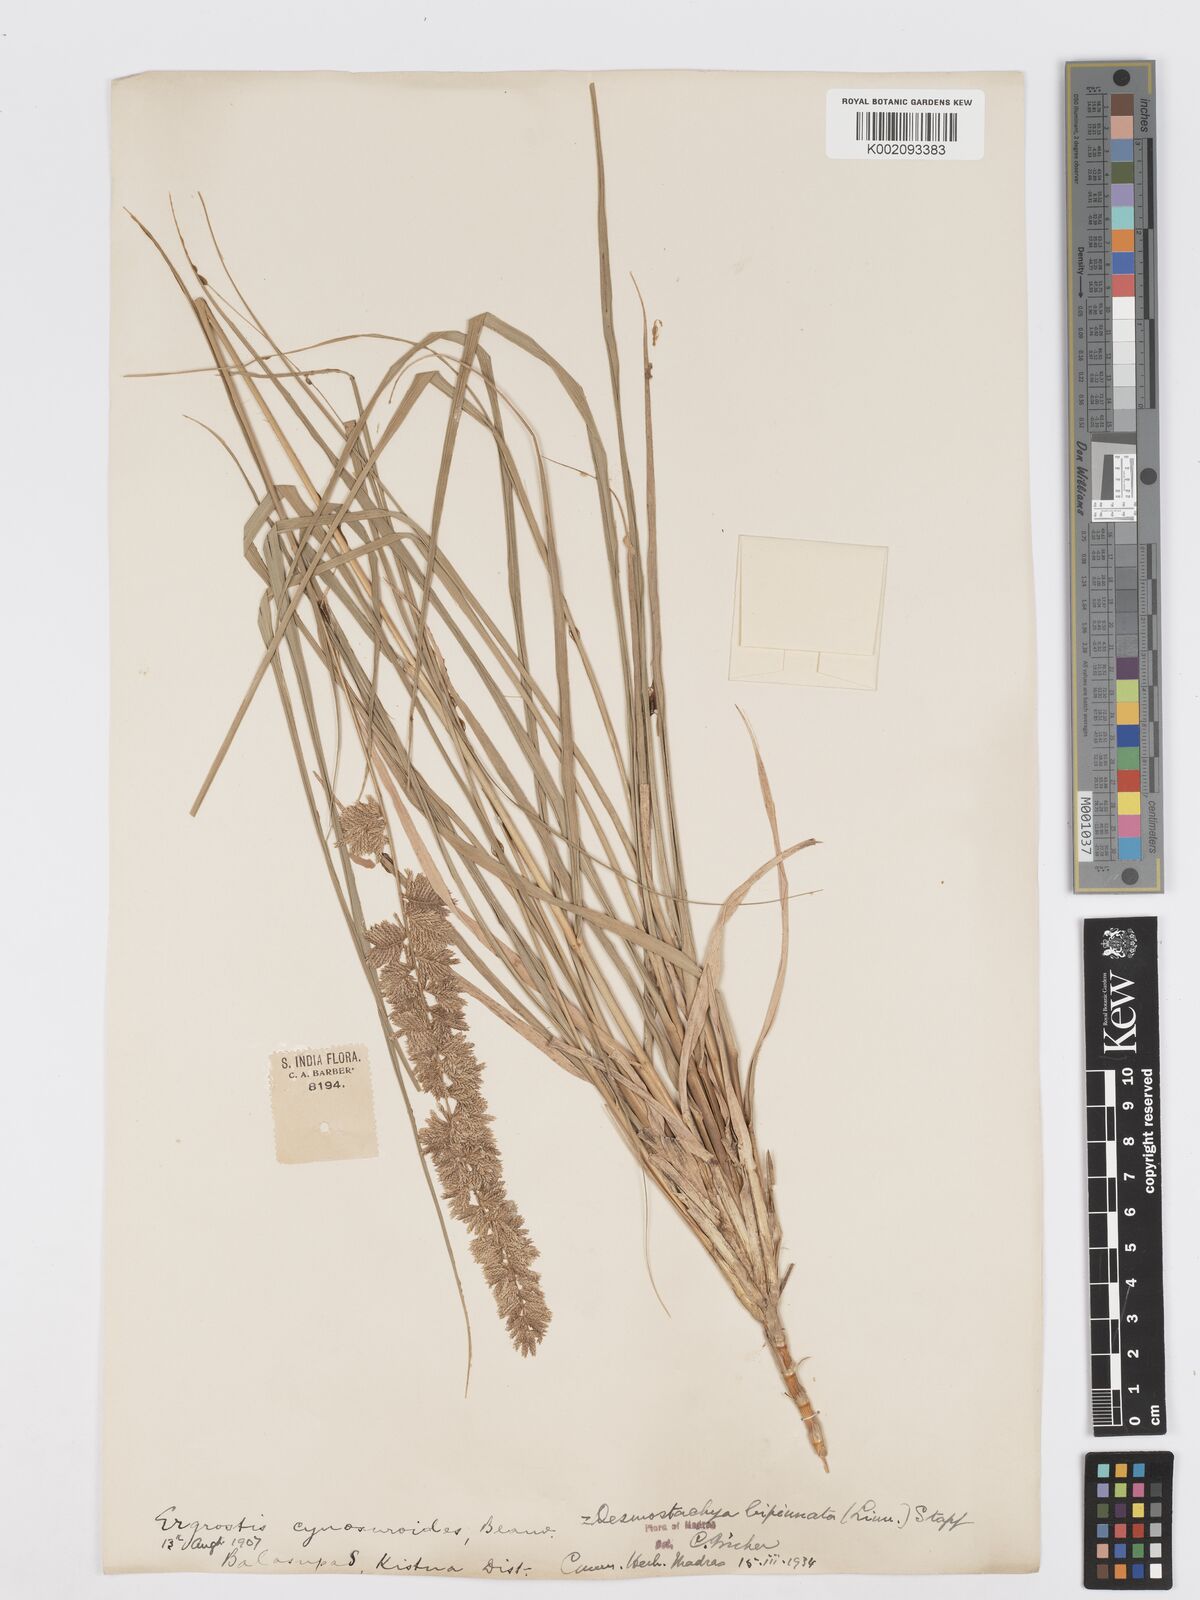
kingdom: Plantae
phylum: Tracheophyta
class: Liliopsida
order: Poales
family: Poaceae
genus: Desmostachya
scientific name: Desmostachya bipinnata
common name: Crowfoot grass
